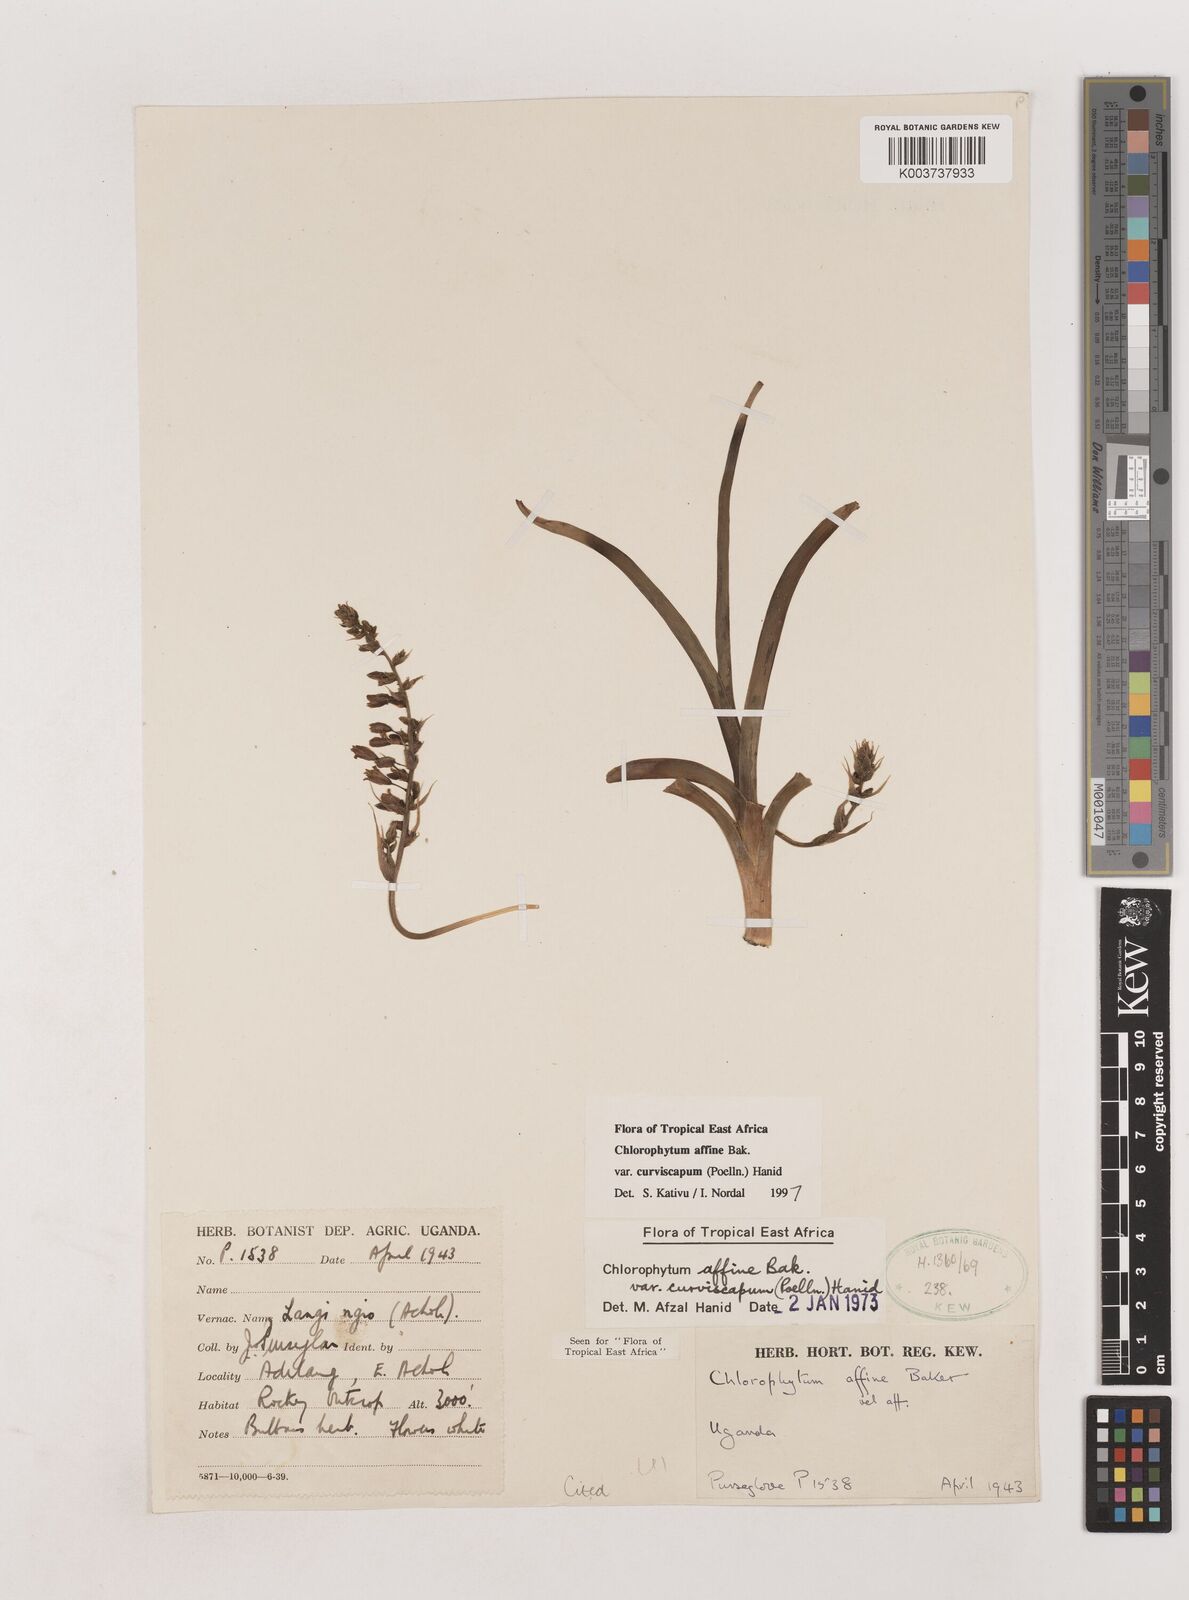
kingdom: Plantae
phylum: Tracheophyta
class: Liliopsida
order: Asparagales
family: Asparagaceae
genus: Chlorophytum
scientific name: Chlorophytum tordense
